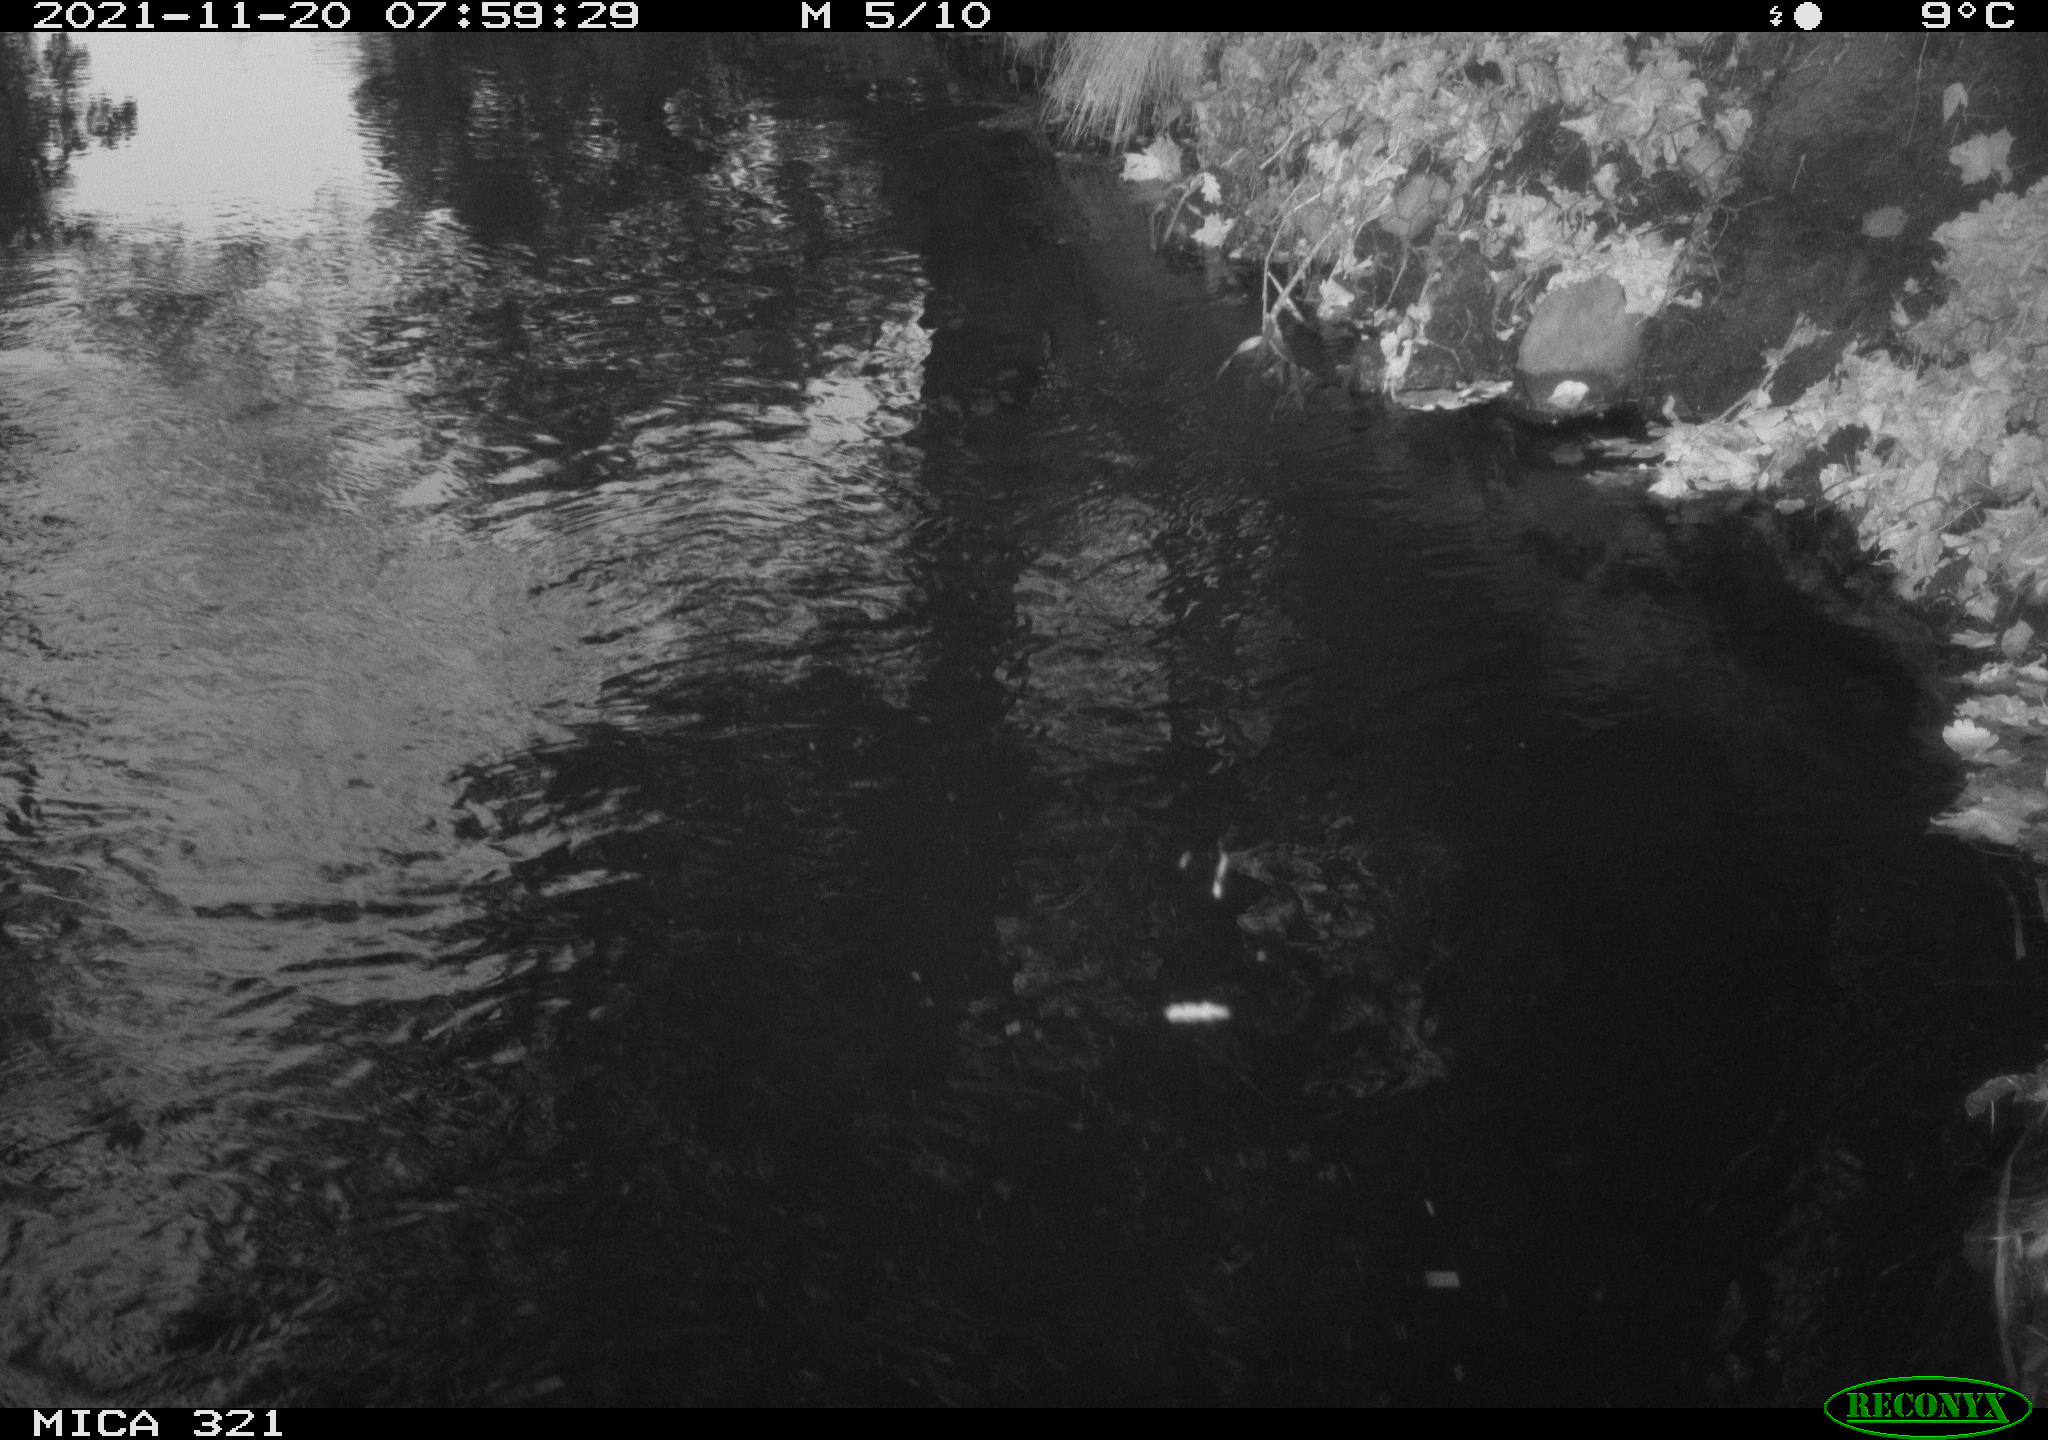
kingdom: Animalia
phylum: Chordata
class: Aves
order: Gruiformes
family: Rallidae
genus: Gallinula
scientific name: Gallinula chloropus
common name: Common moorhen
